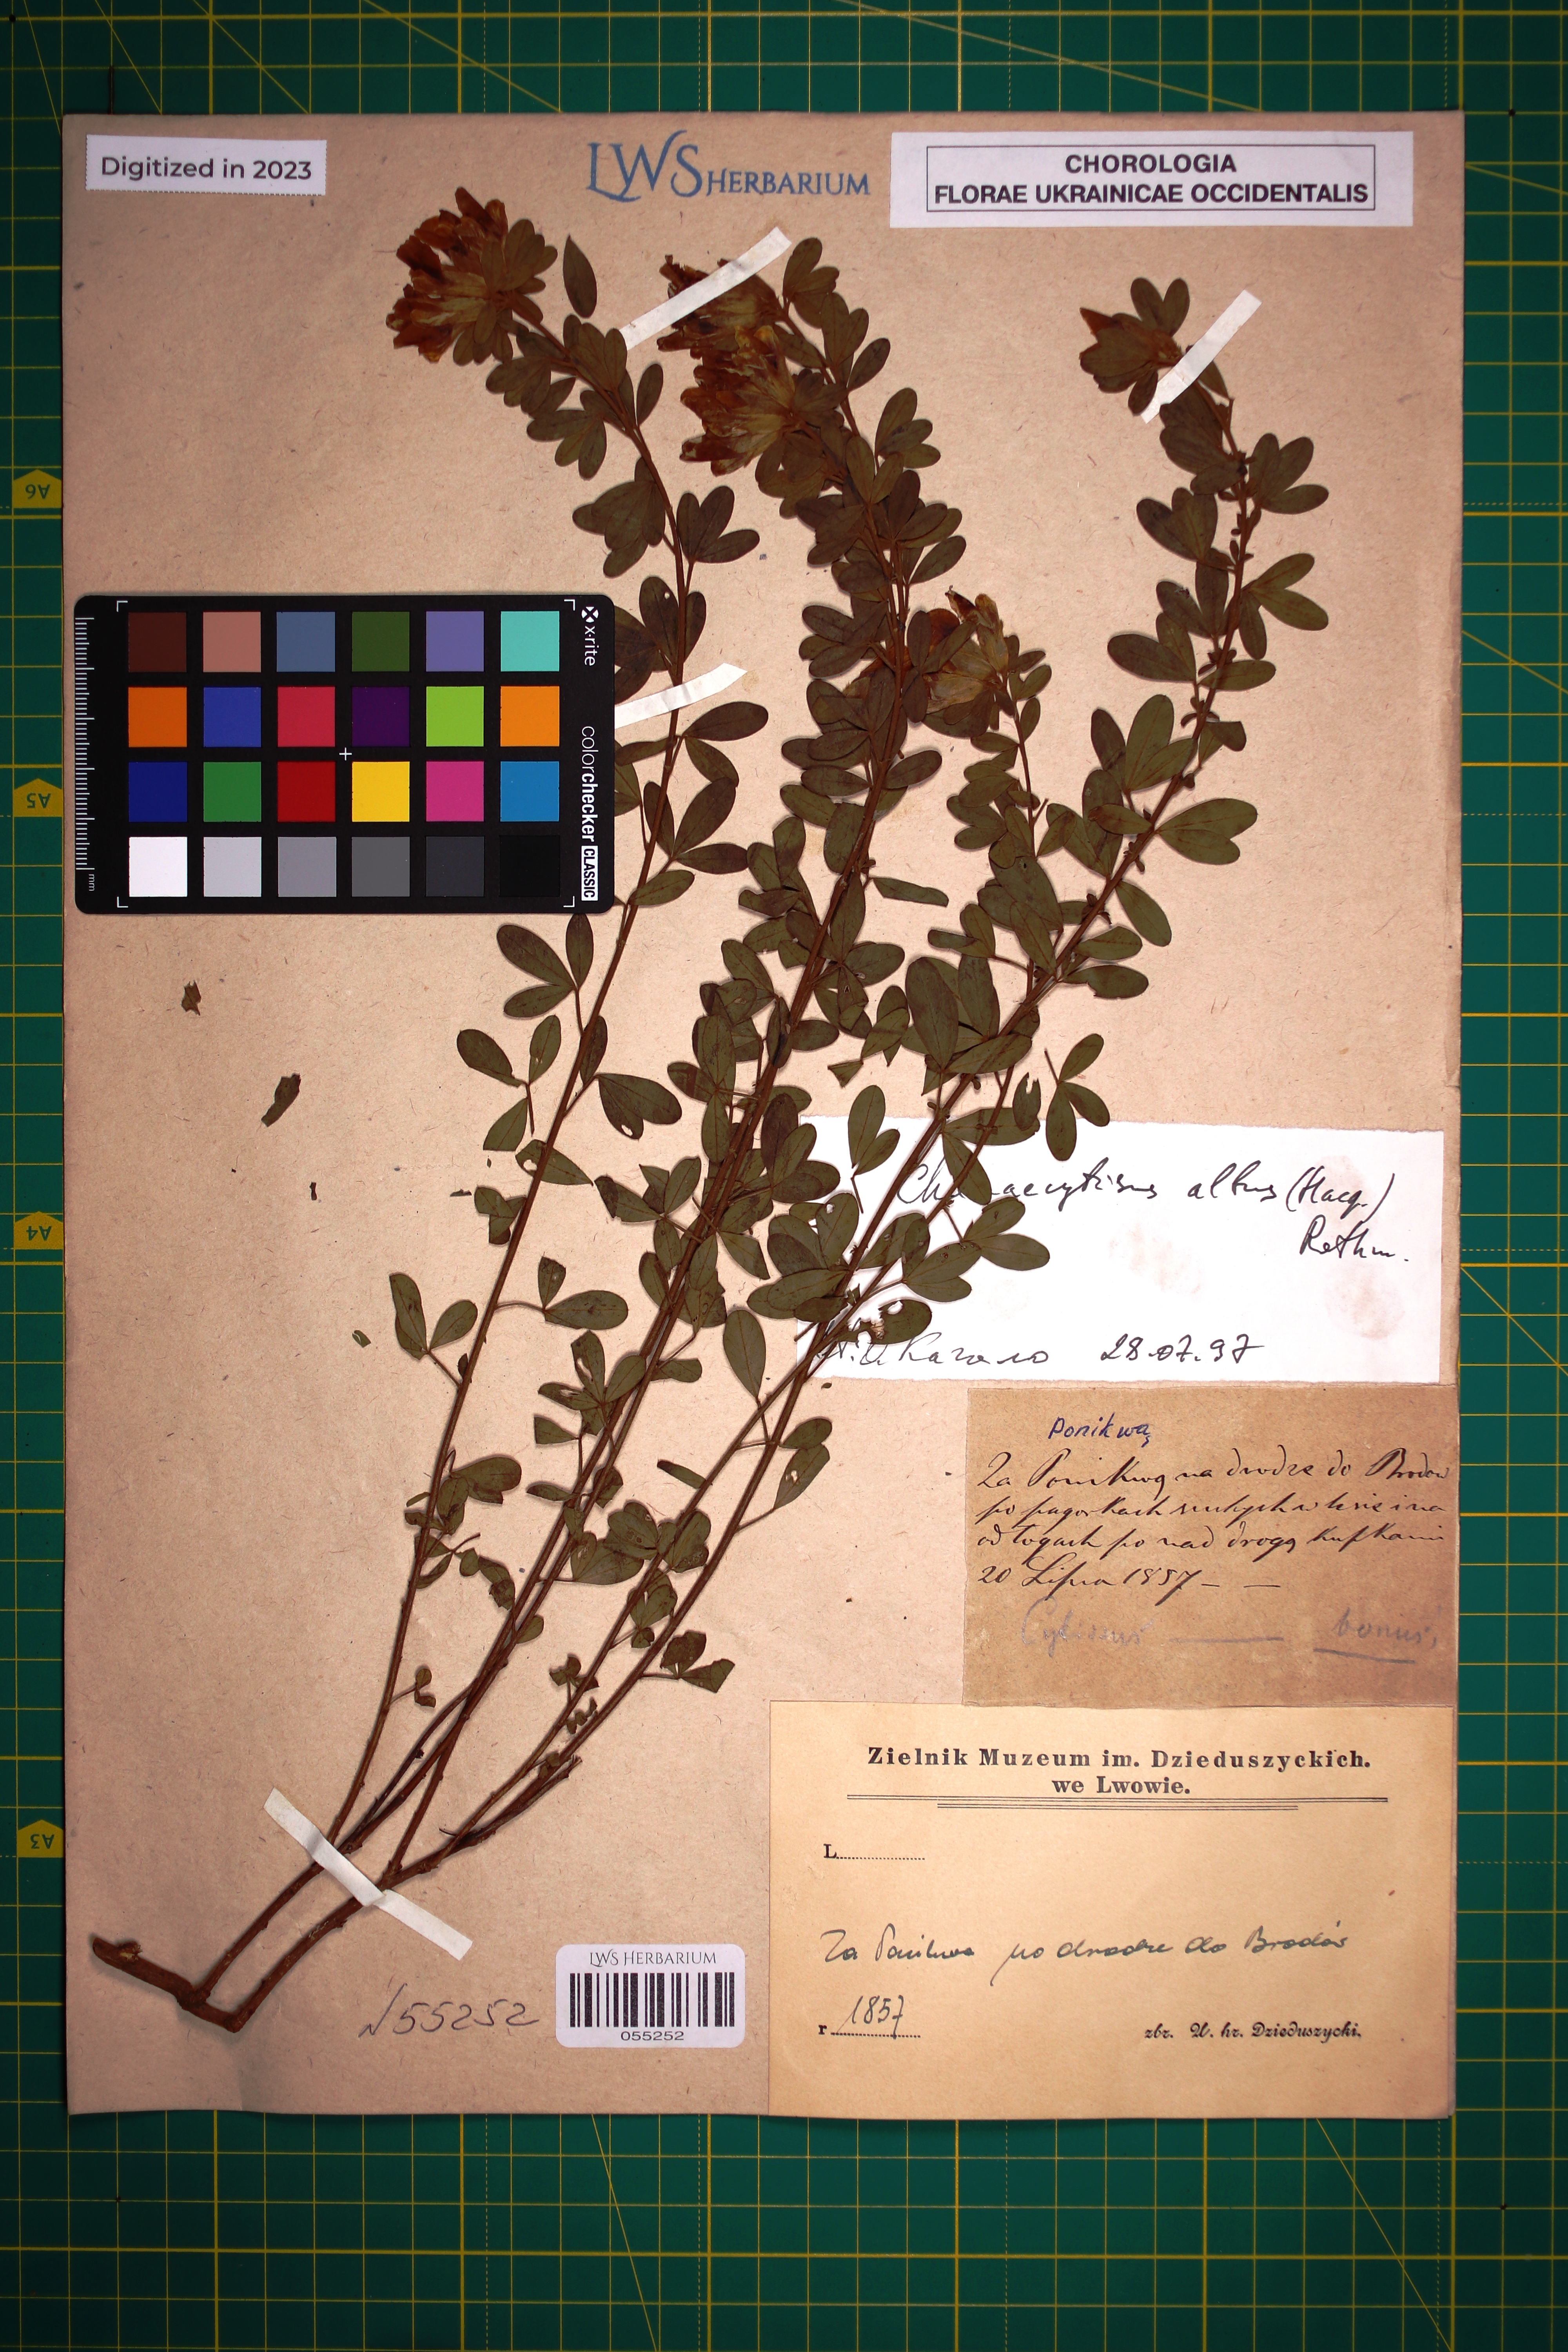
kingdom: Plantae
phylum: Tracheophyta
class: Magnoliopsida
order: Fabales
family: Fabaceae
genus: Chamaecytisus
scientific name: Chamaecytisus albus
